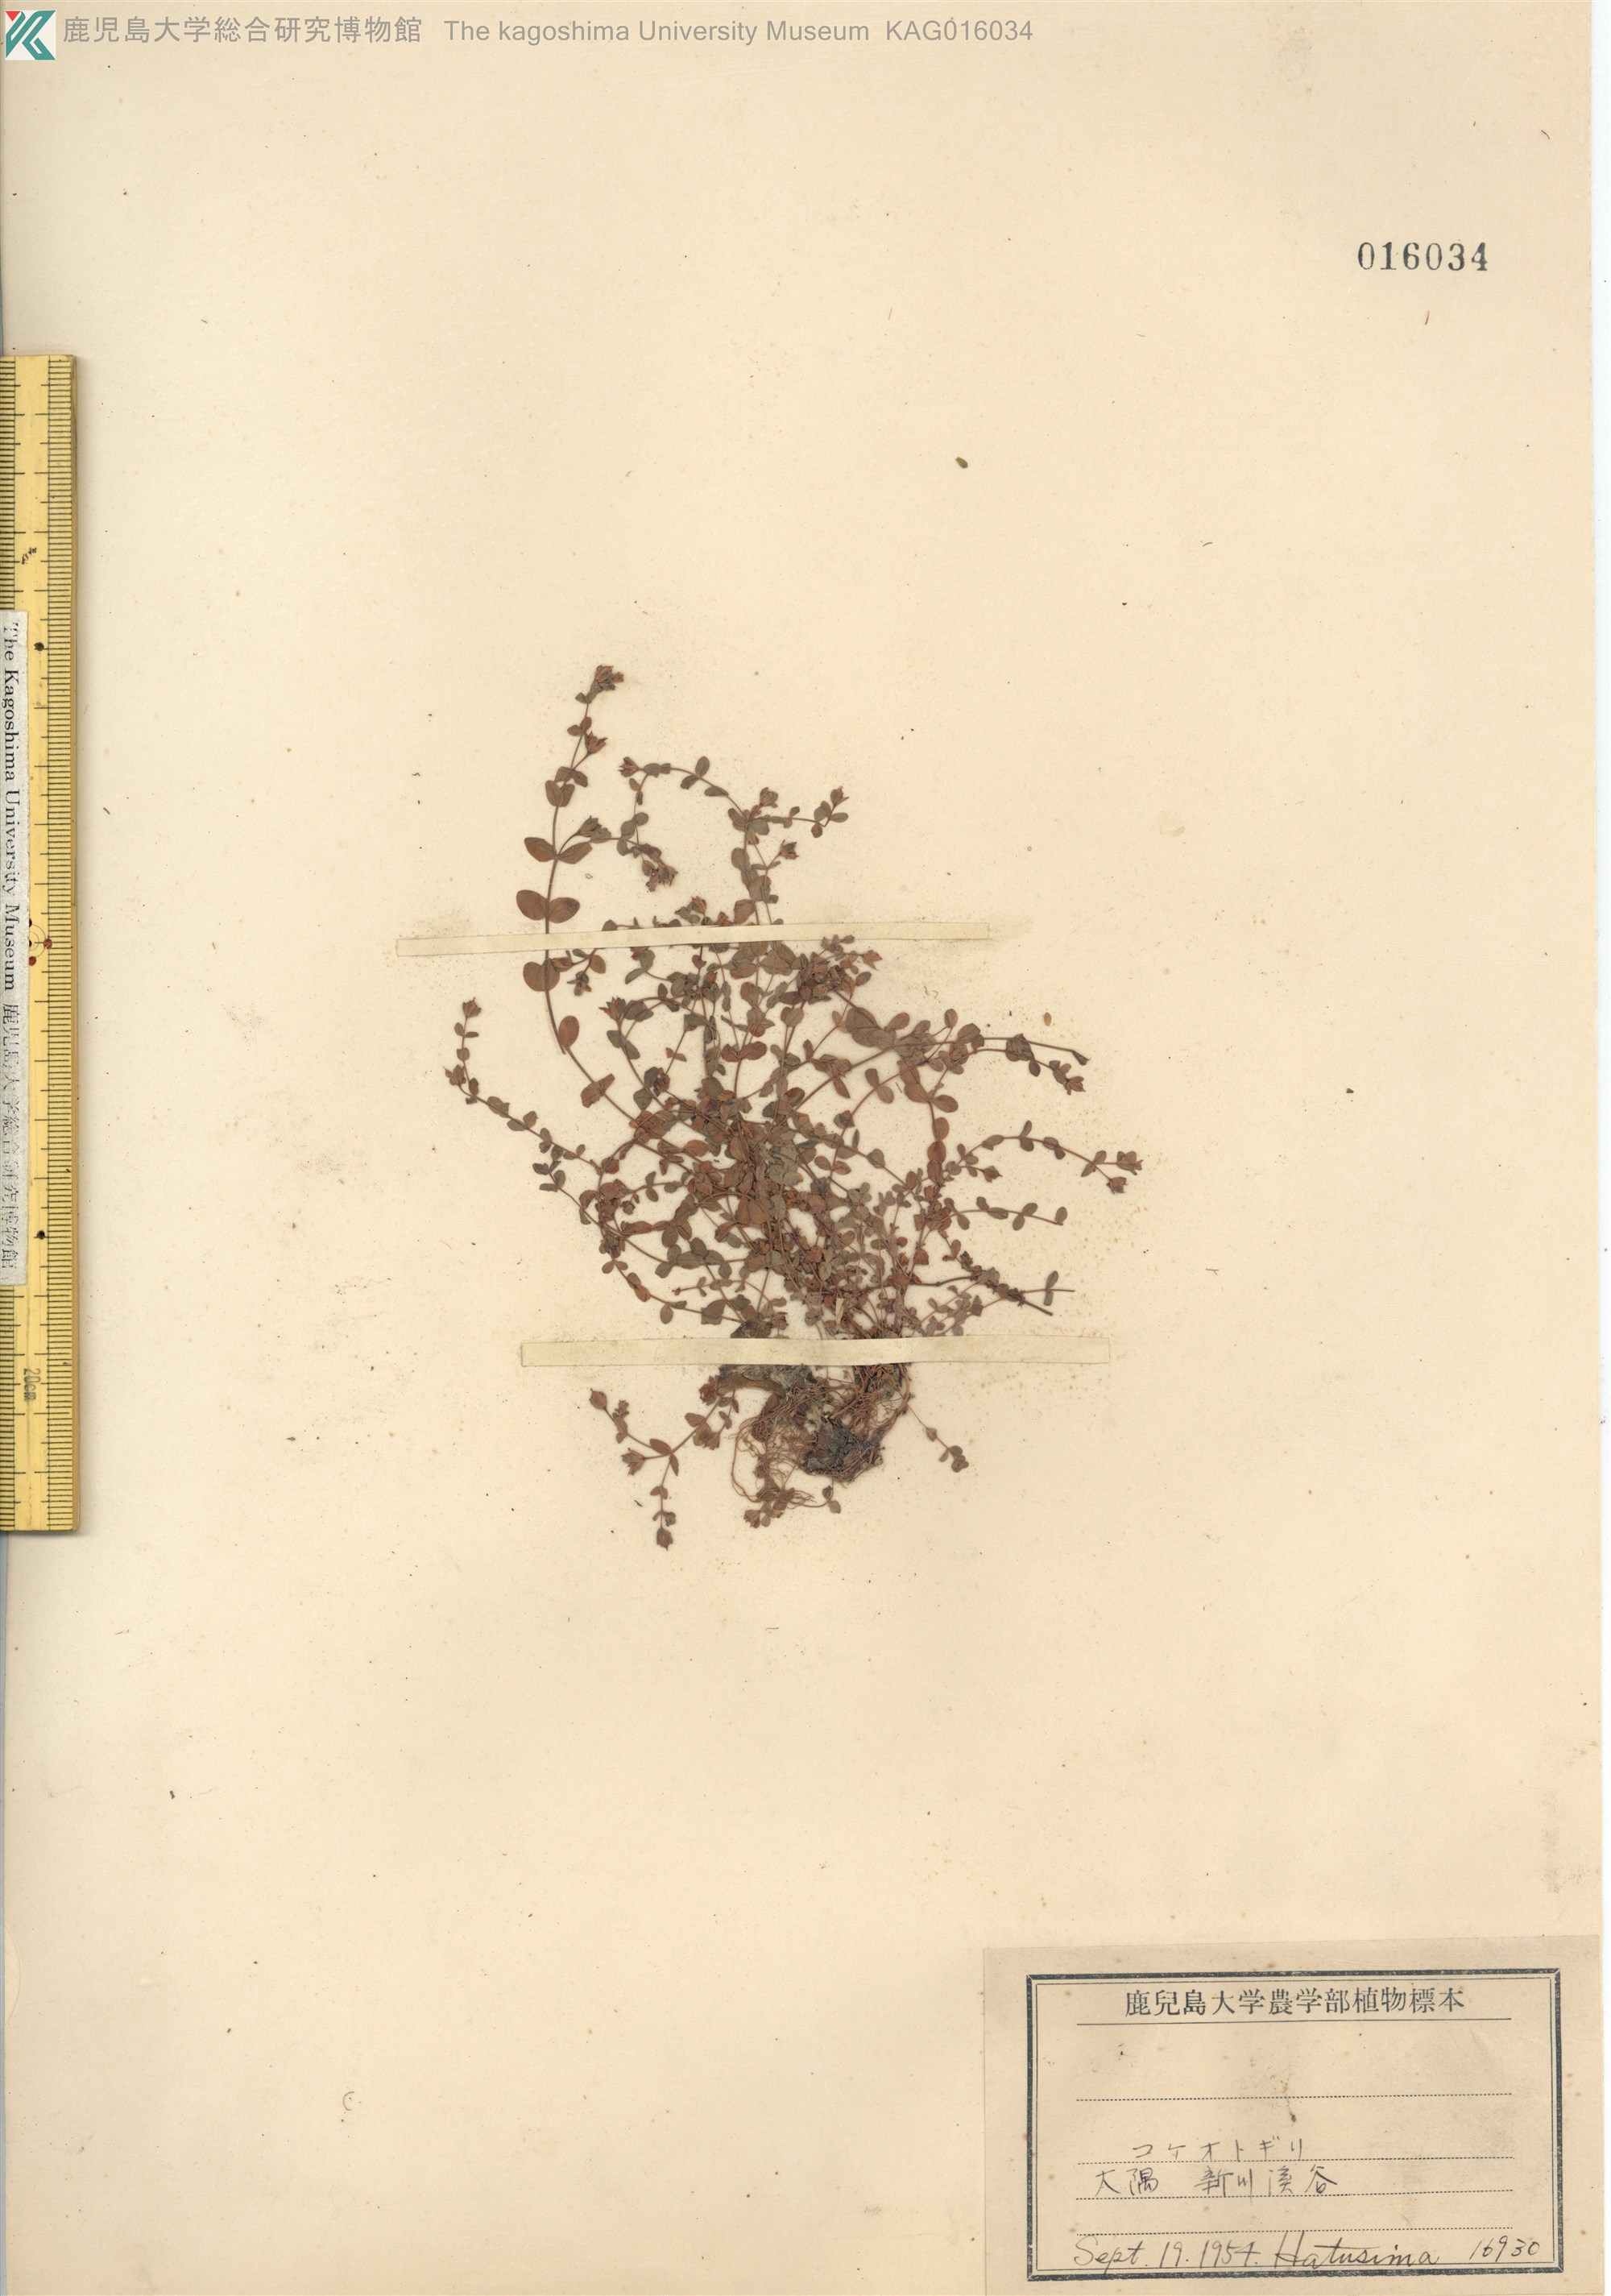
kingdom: Plantae
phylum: Tracheophyta
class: Magnoliopsida
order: Malpighiales
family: Hypericaceae
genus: Hypericum
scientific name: Hypericum japonicum
